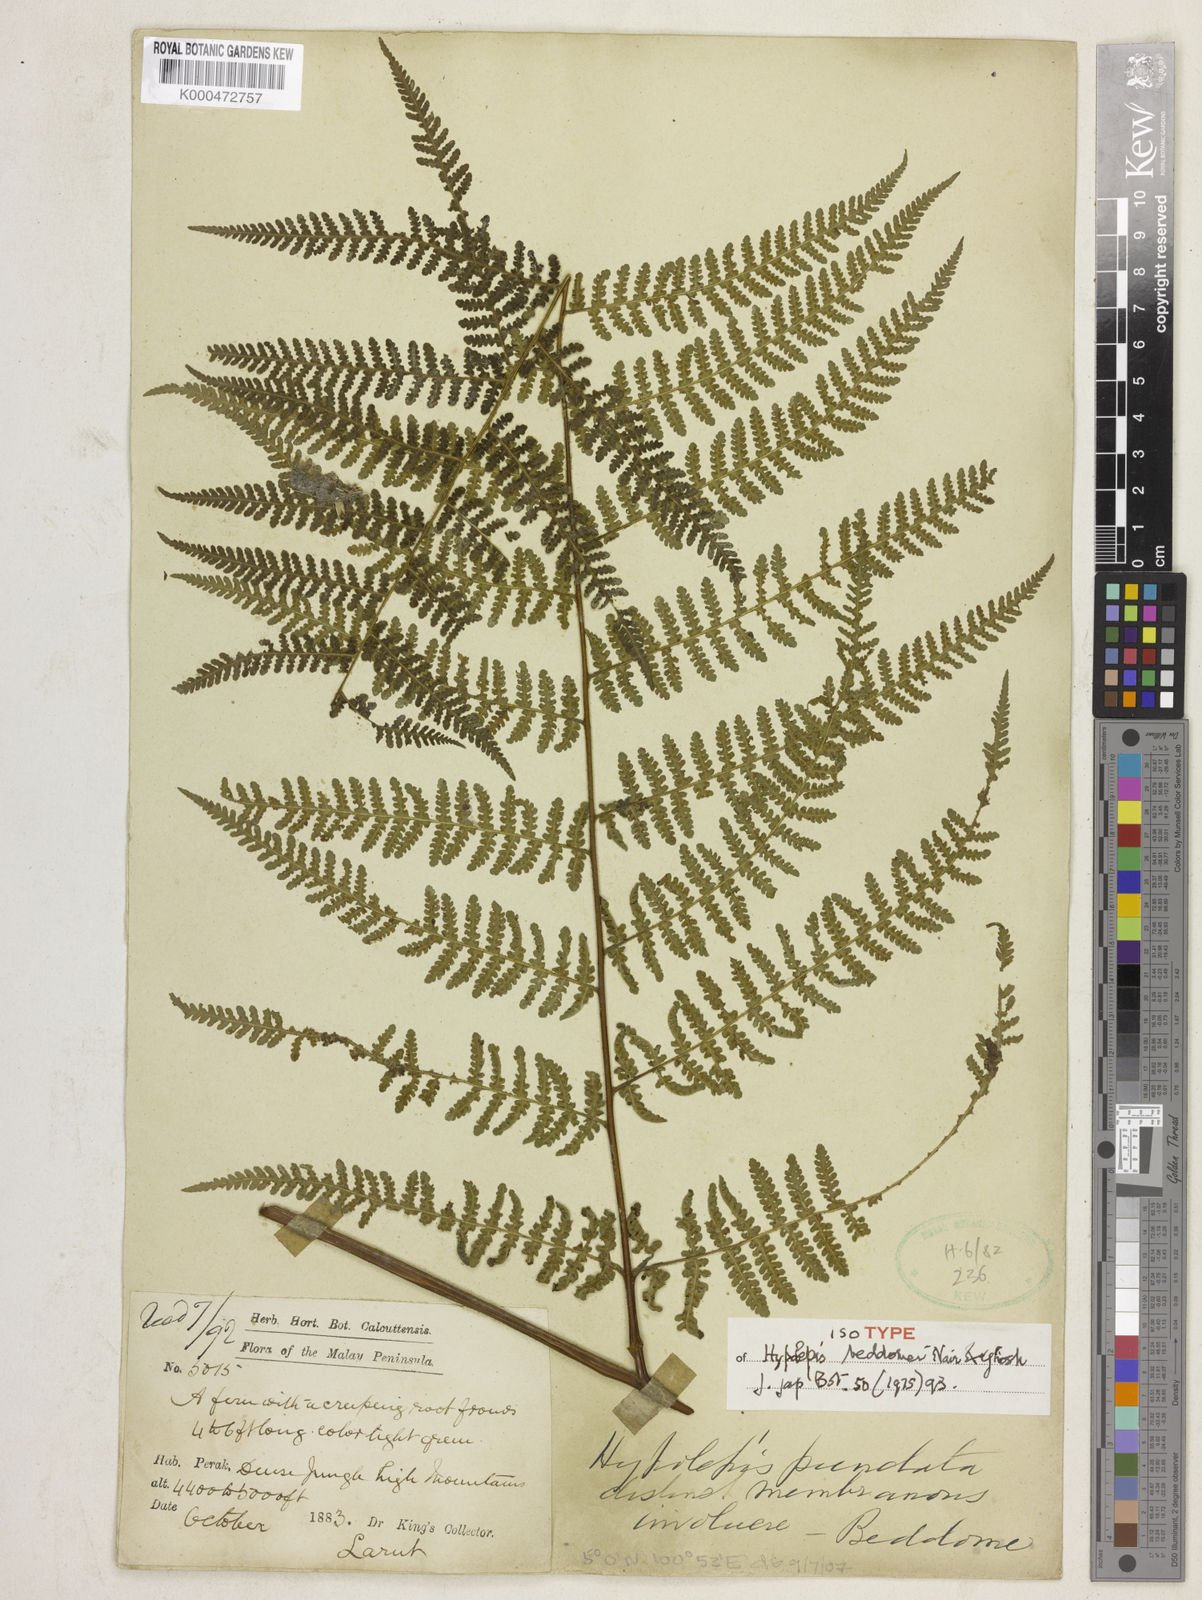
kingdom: Plantae
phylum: Tracheophyta
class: Polypodiopsida
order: Polypodiales
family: Dennstaedtiaceae
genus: Hypolepis
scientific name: Hypolepis pallida
